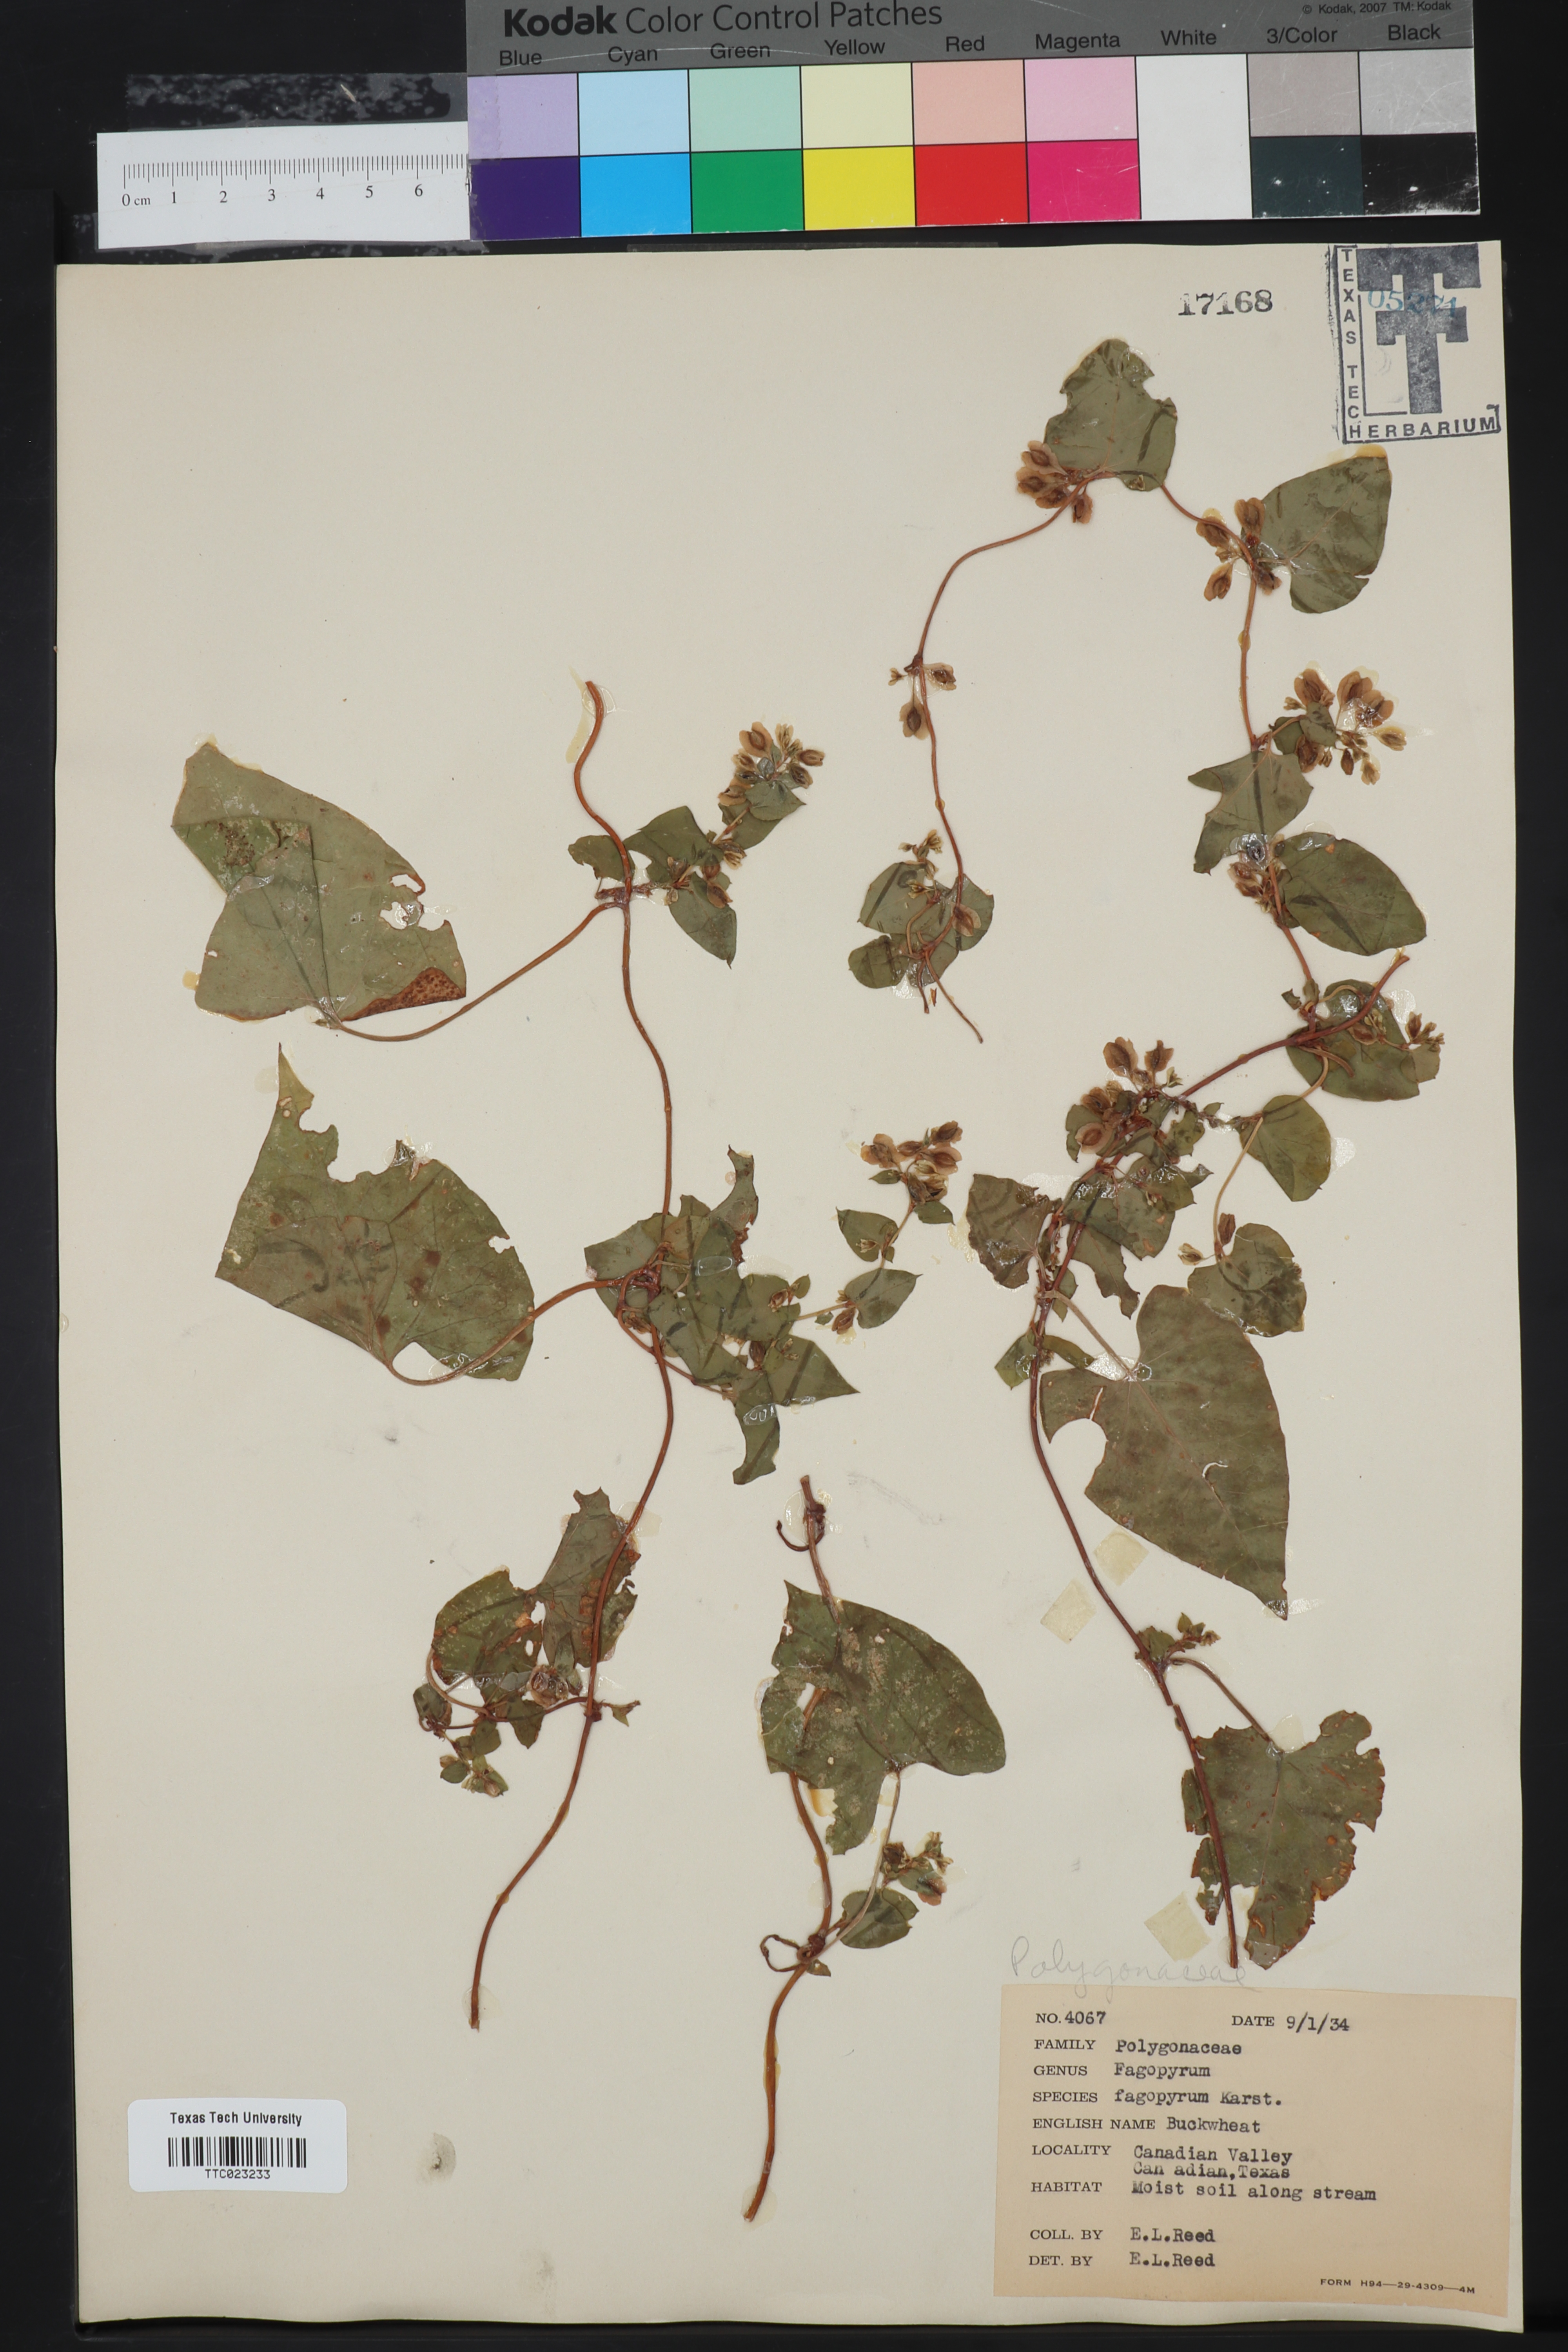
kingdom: Plantae
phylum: Tracheophyta
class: Magnoliopsida
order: Caryophyllales
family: Polygonaceae
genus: Fagopyrum
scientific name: Fagopyrum esculentum
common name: Buckwheat
